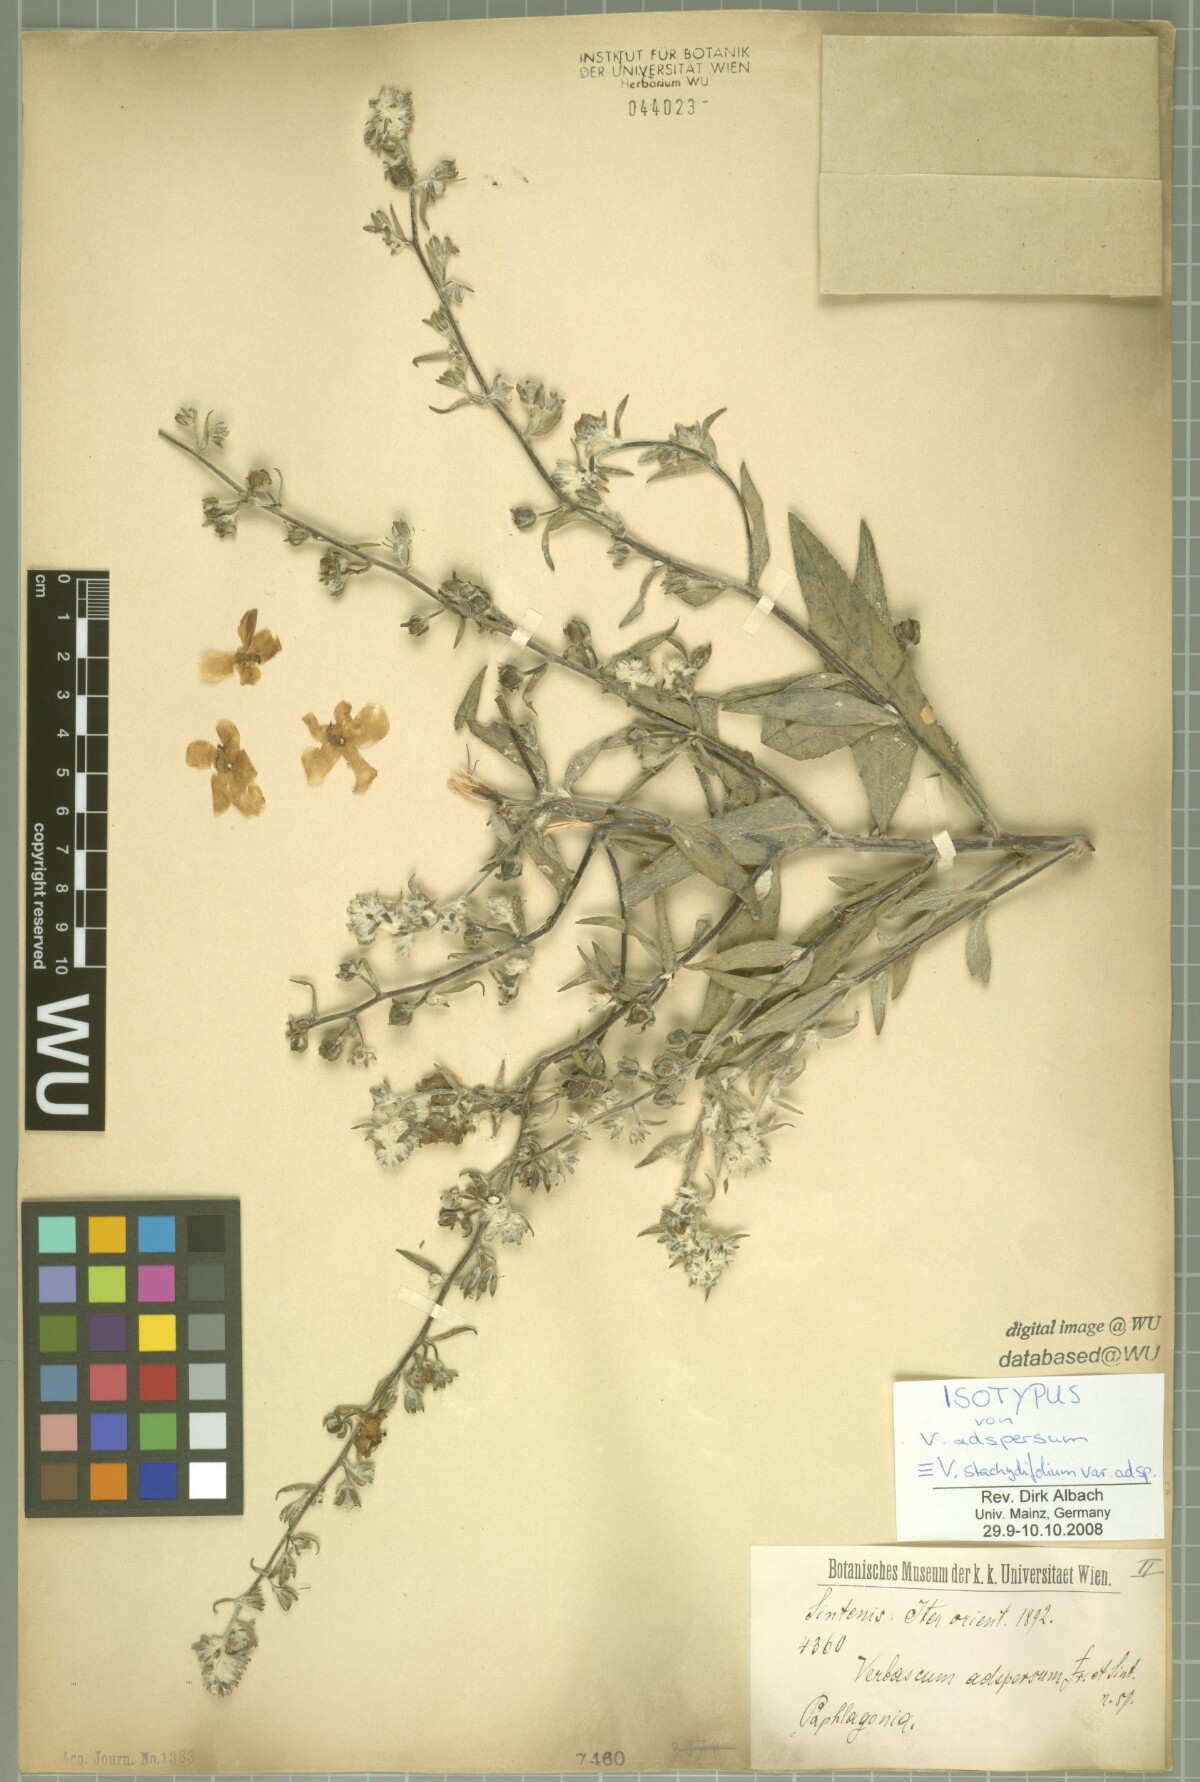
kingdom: Plantae
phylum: Tracheophyta
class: Magnoliopsida
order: Lamiales
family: Scrophulariaceae
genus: Verbascum
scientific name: Verbascum stachydifolium
